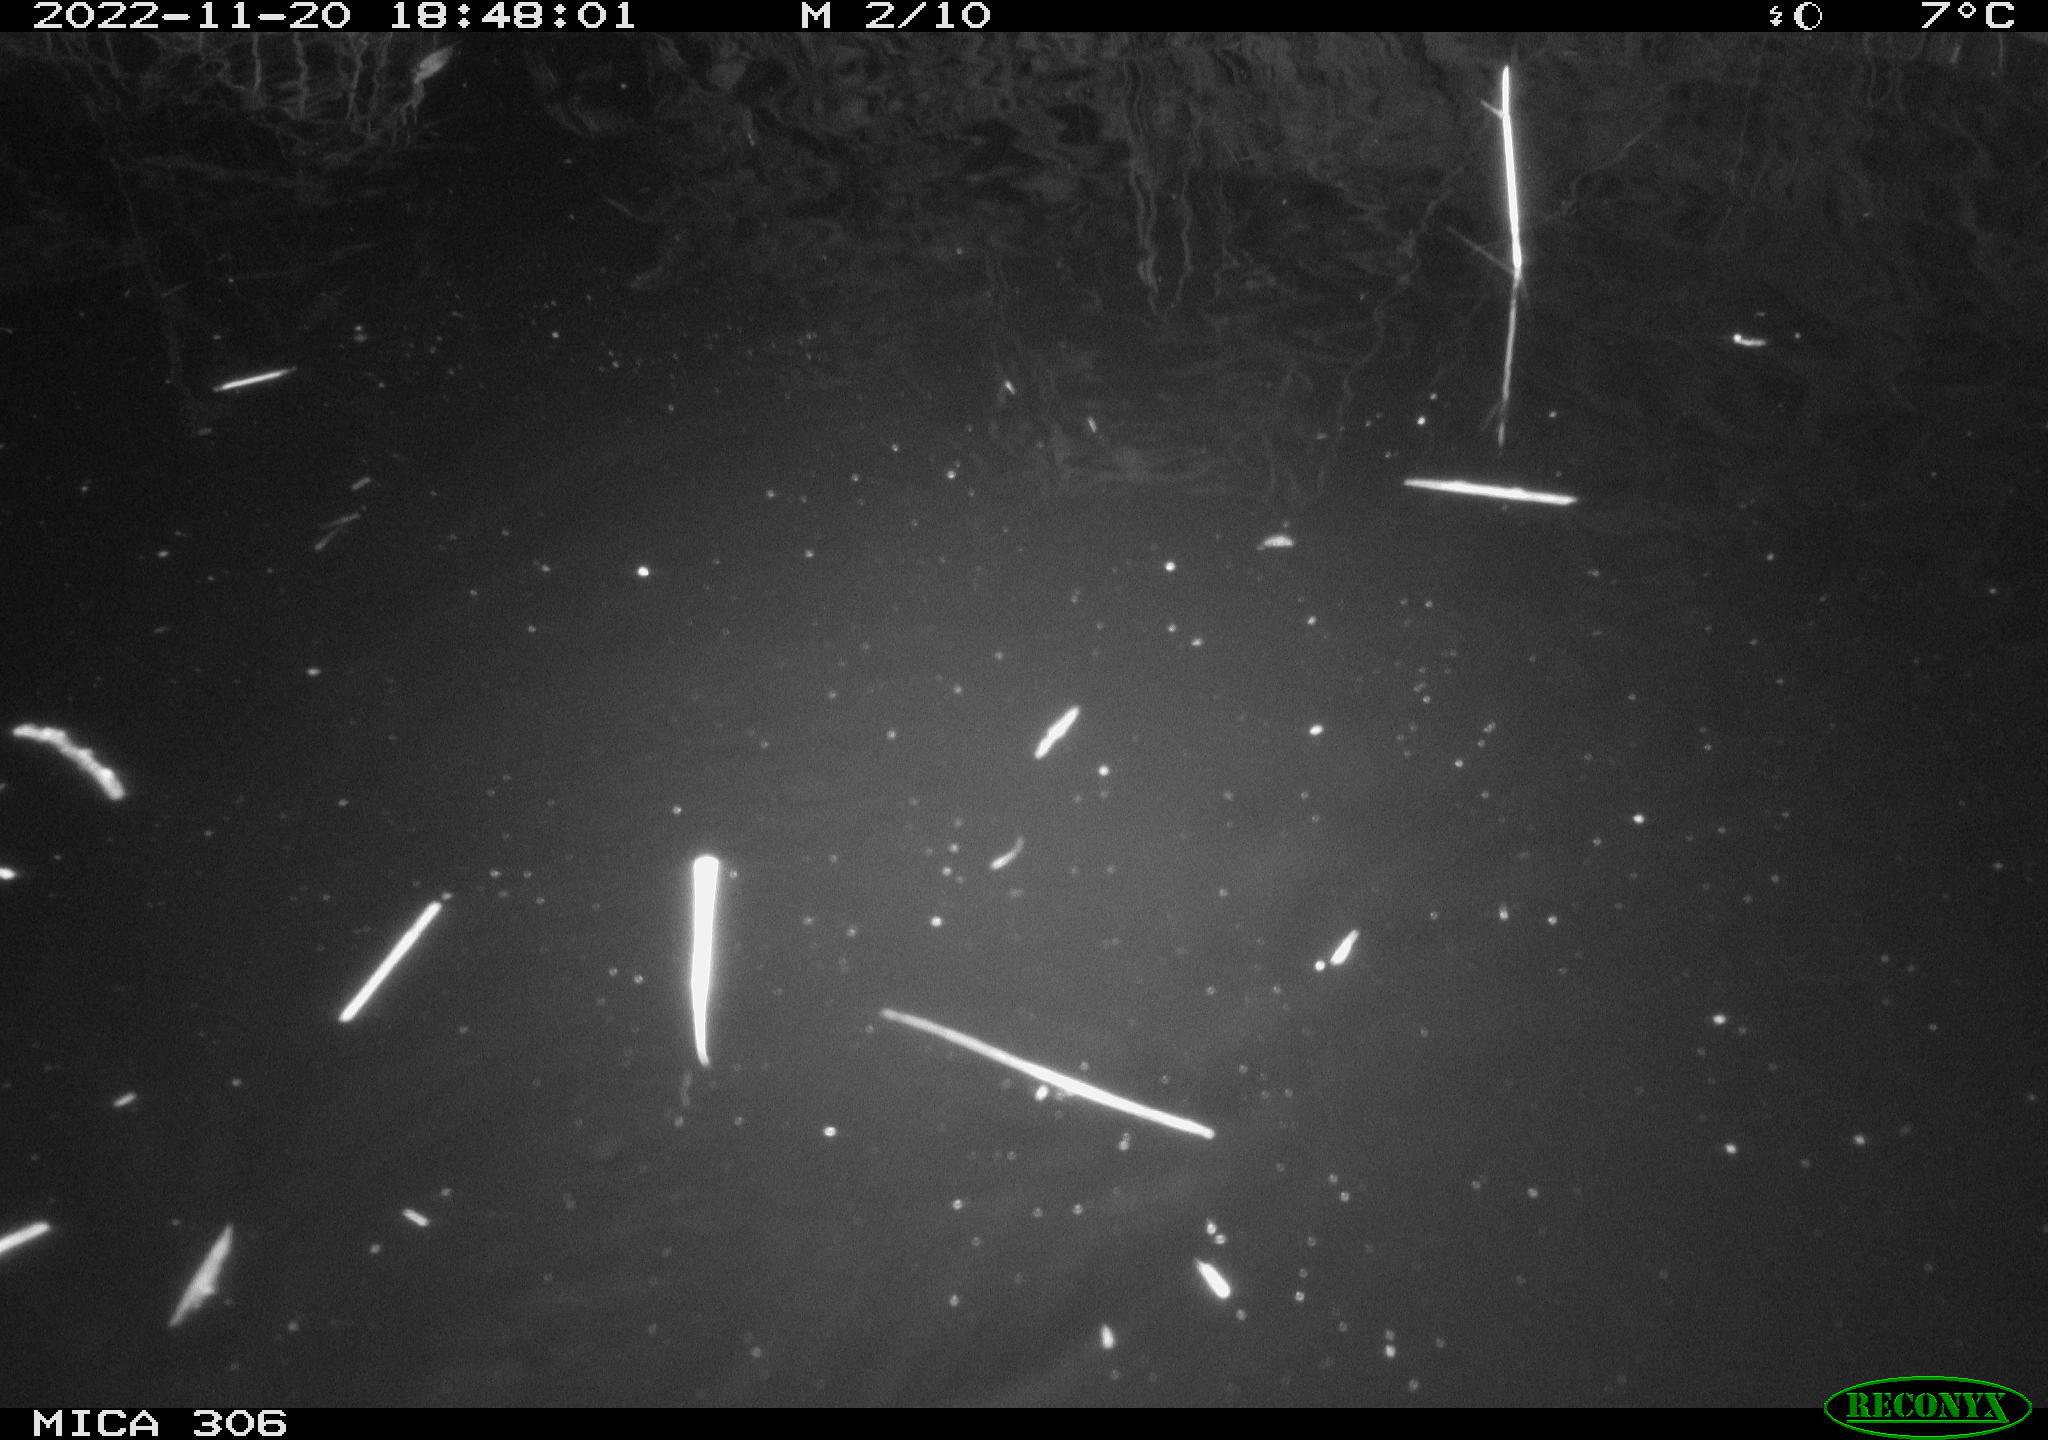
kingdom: Animalia
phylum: Chordata
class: Mammalia
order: Rodentia
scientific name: Rodentia
